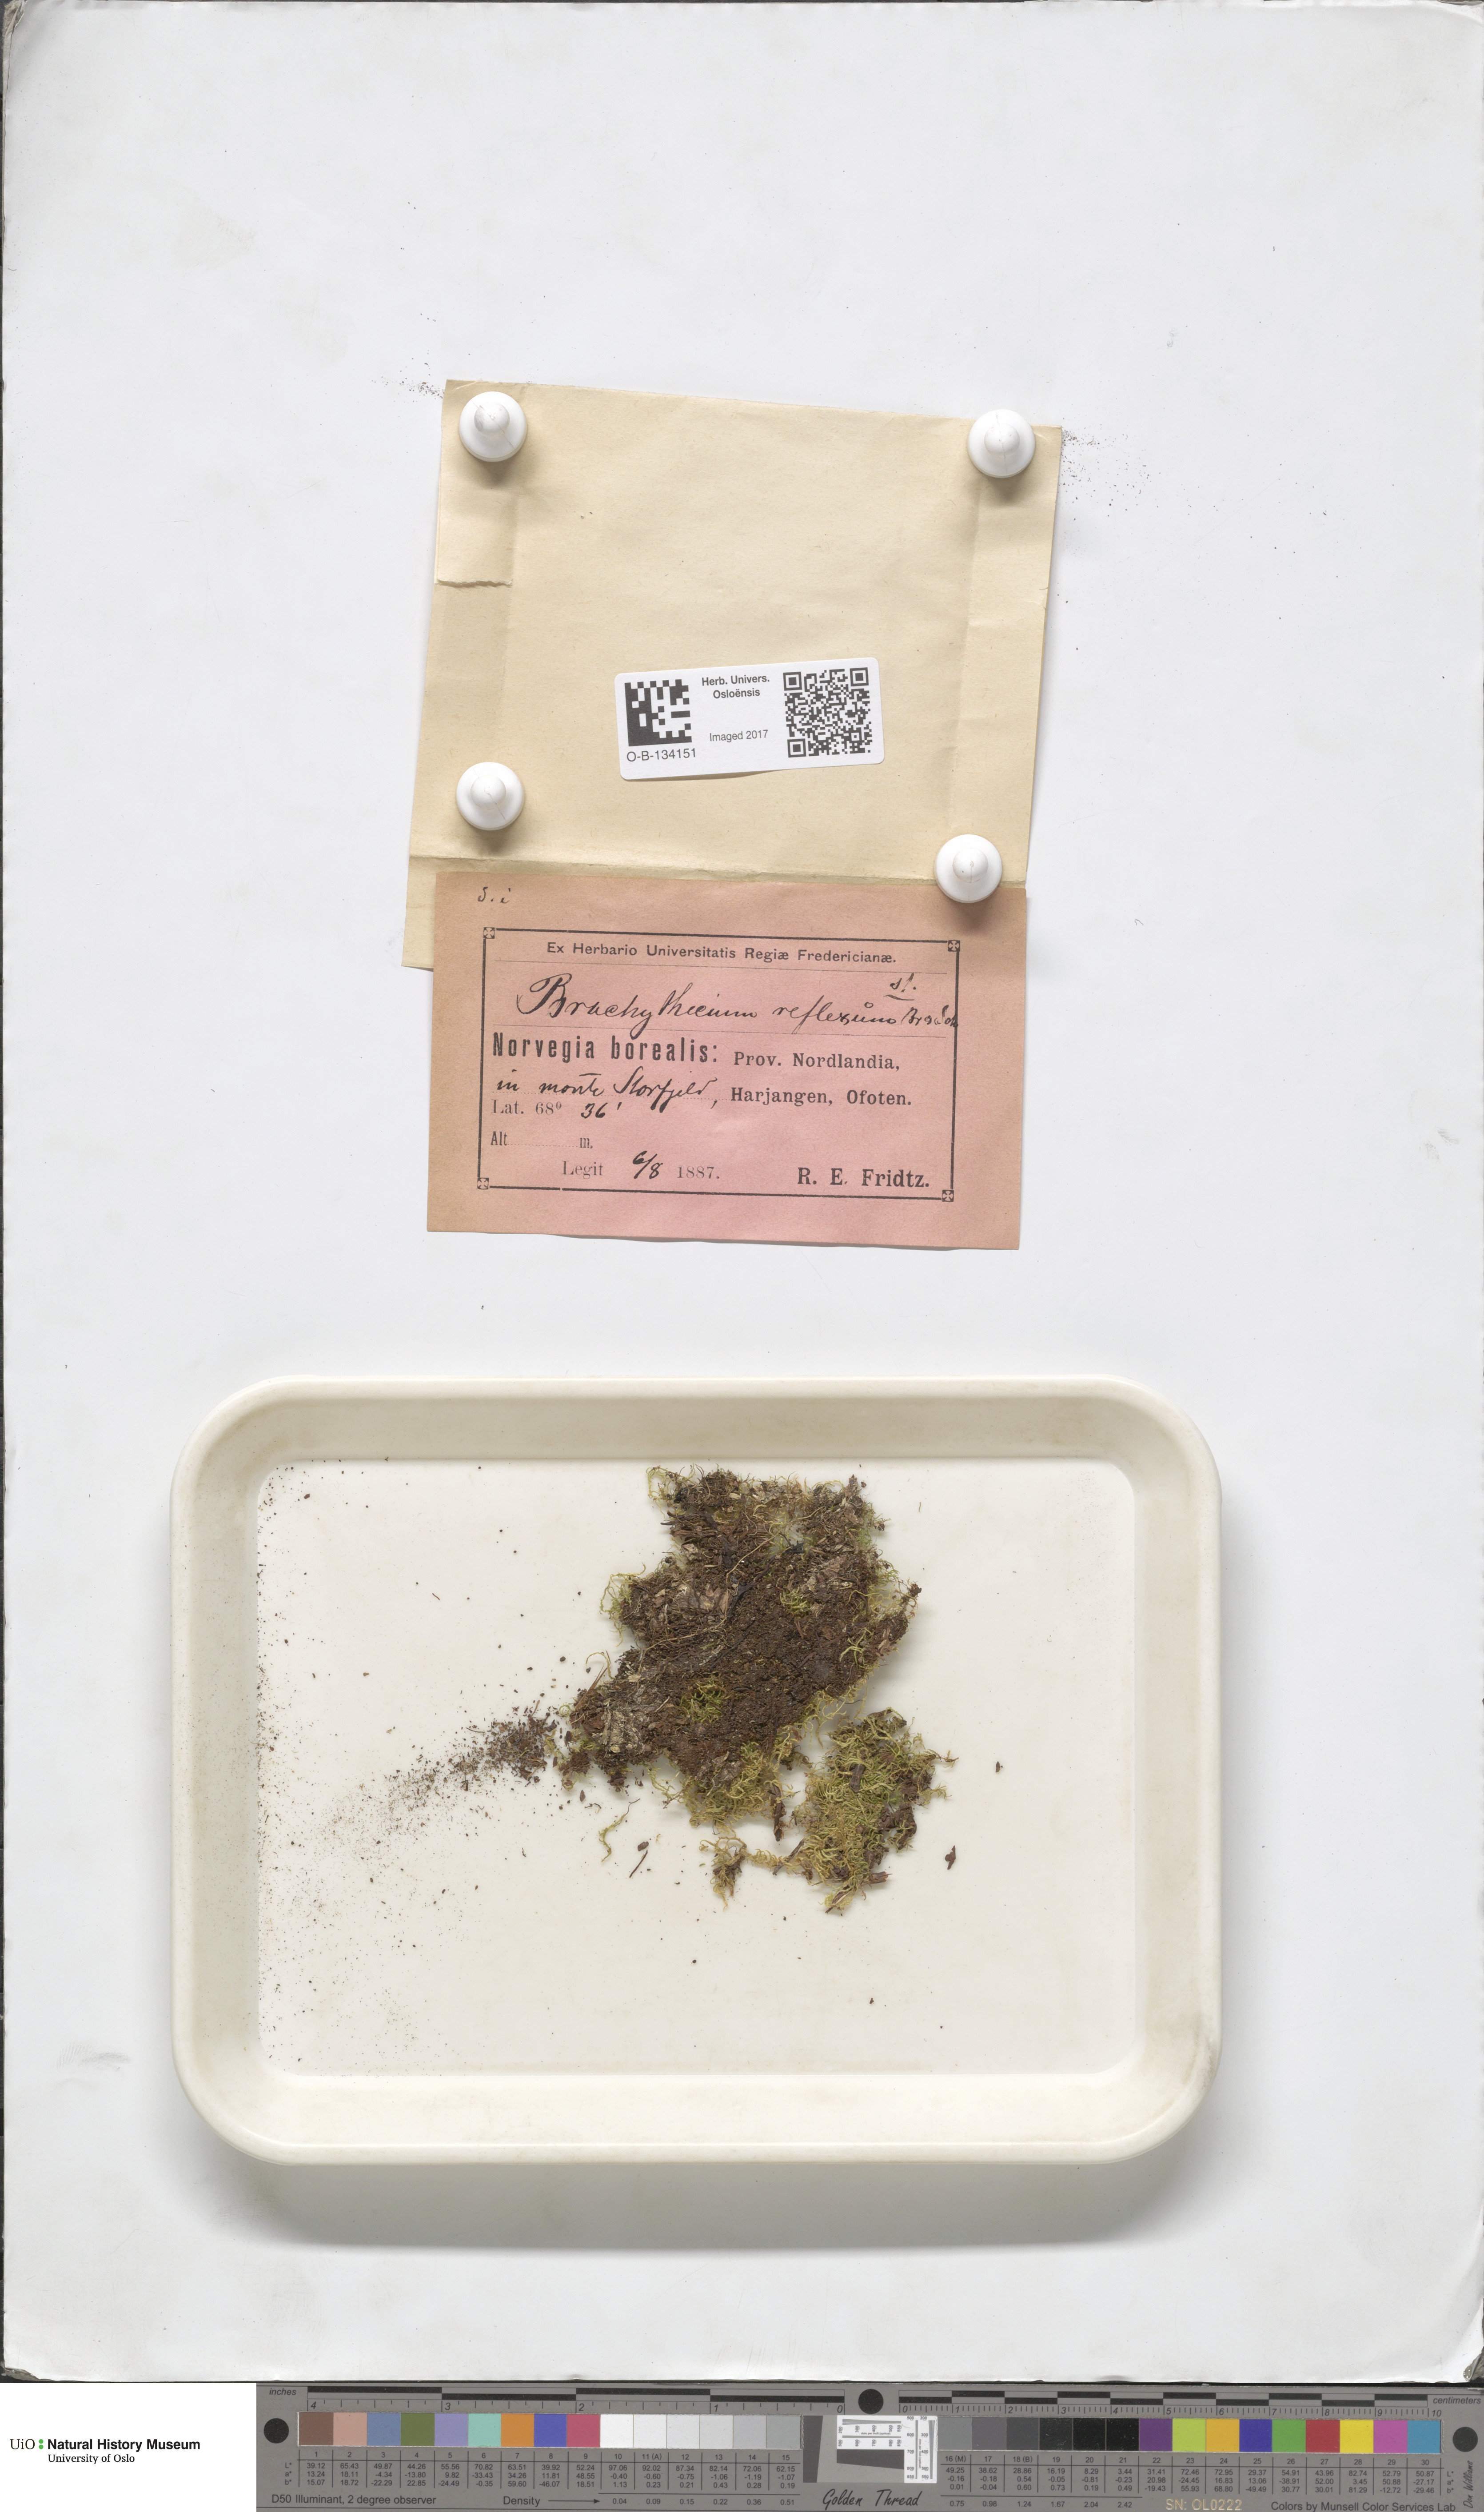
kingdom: Plantae
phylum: Bryophyta
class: Bryopsida
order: Hypnales
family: Brachytheciaceae
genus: Sciuro-hypnum
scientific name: Sciuro-hypnum reflexum
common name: Reflexed feather-moss
